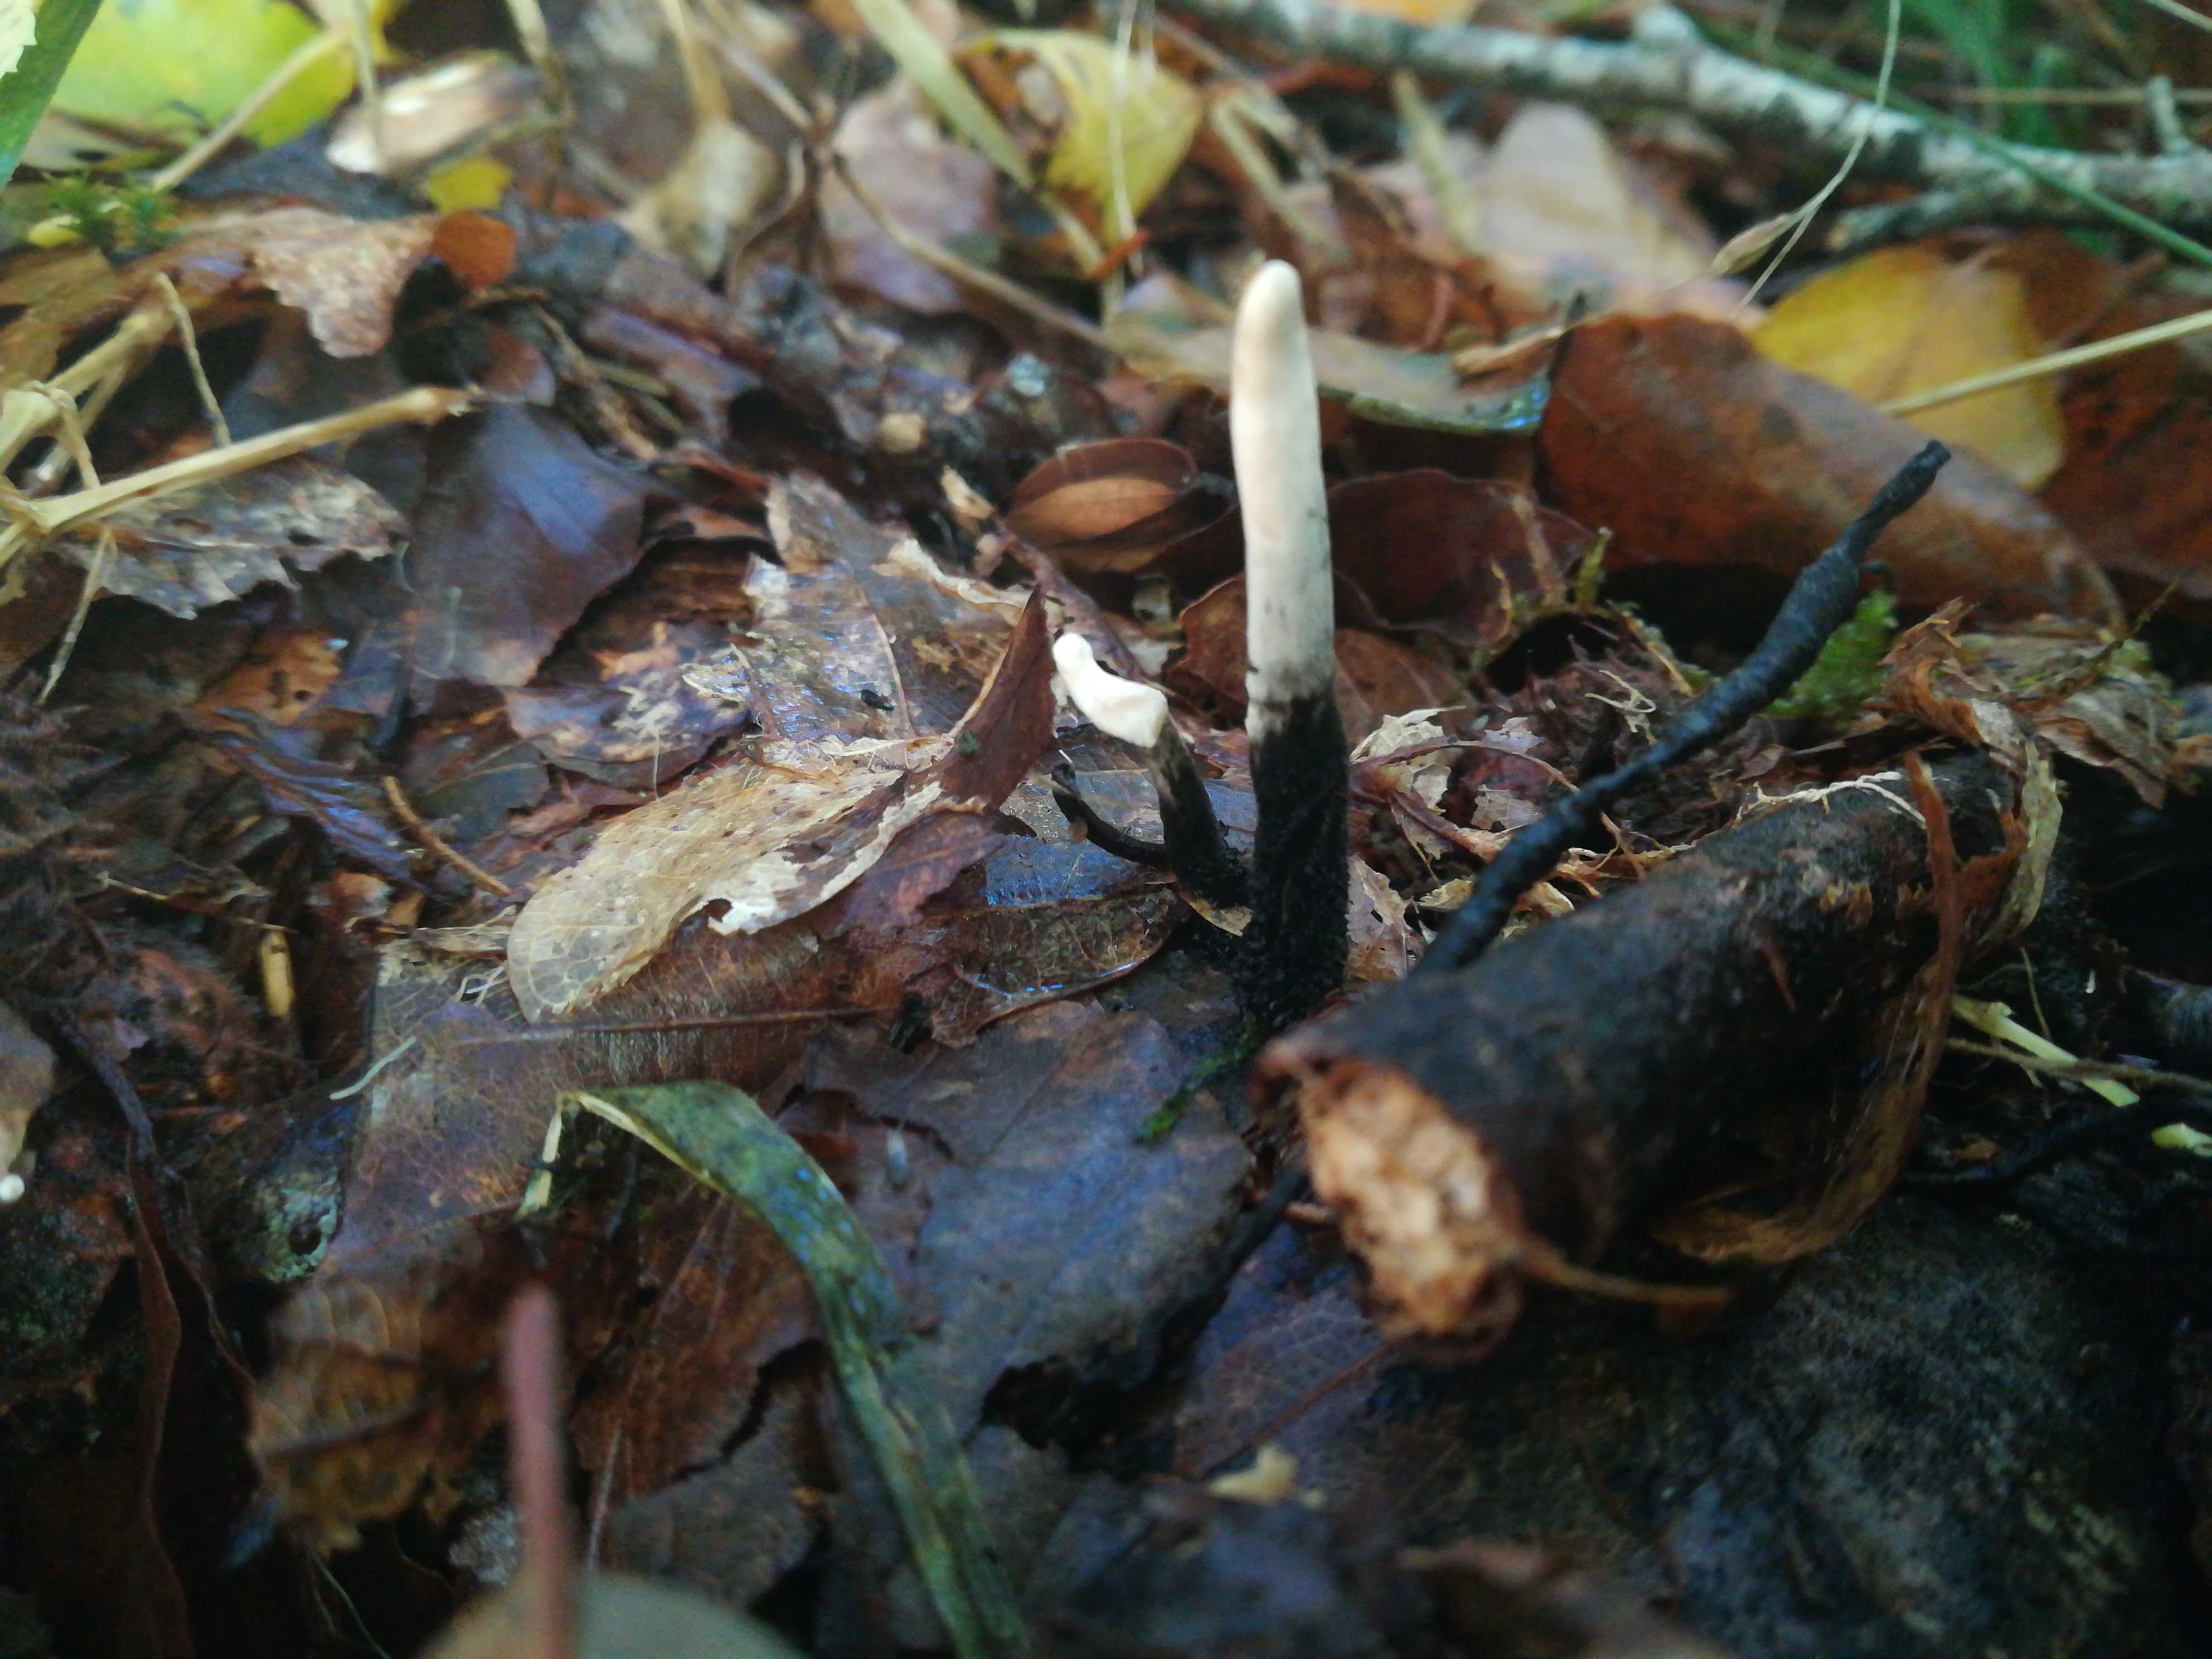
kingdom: Fungi
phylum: Ascomycota
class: Sordariomycetes
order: Xylariales
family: Xylariaceae
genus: Xylaria
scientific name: Xylaria hypoxylon
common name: grenet stødsvamp
